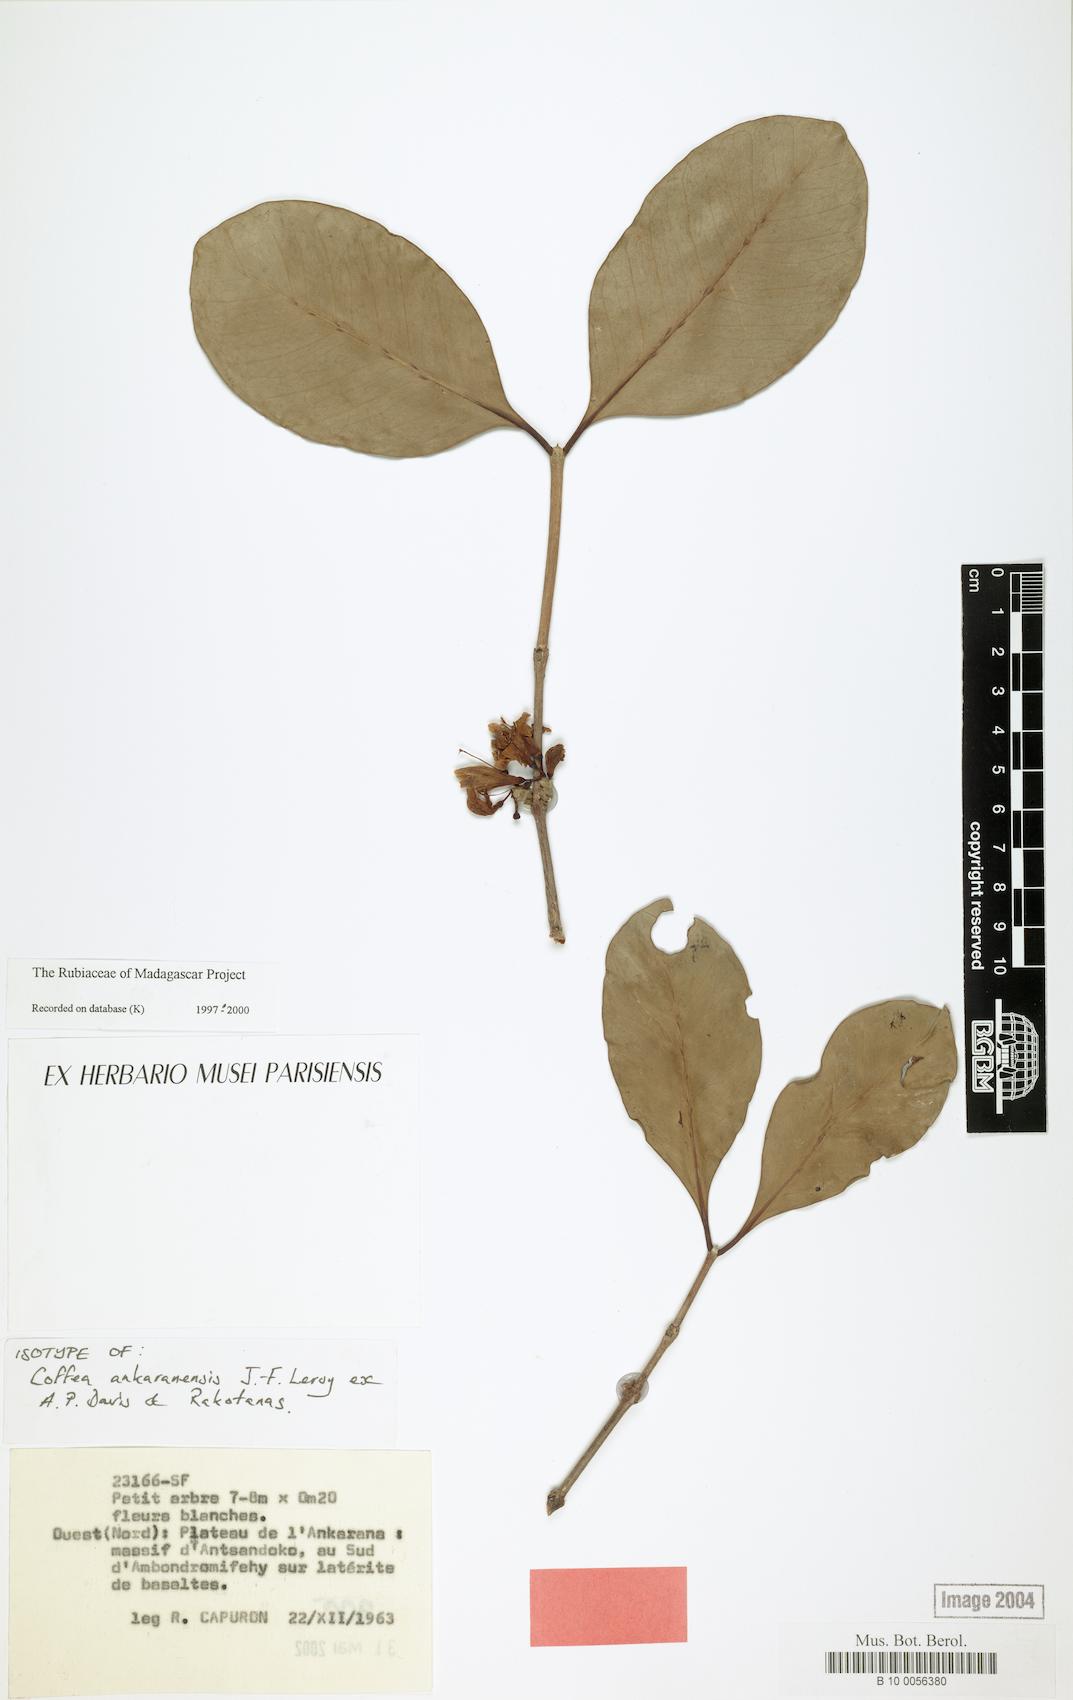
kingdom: Plantae
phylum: Tracheophyta
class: Magnoliopsida
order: Gentianales
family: Rubiaceae
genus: Coffea
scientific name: Coffea ankaranensis
